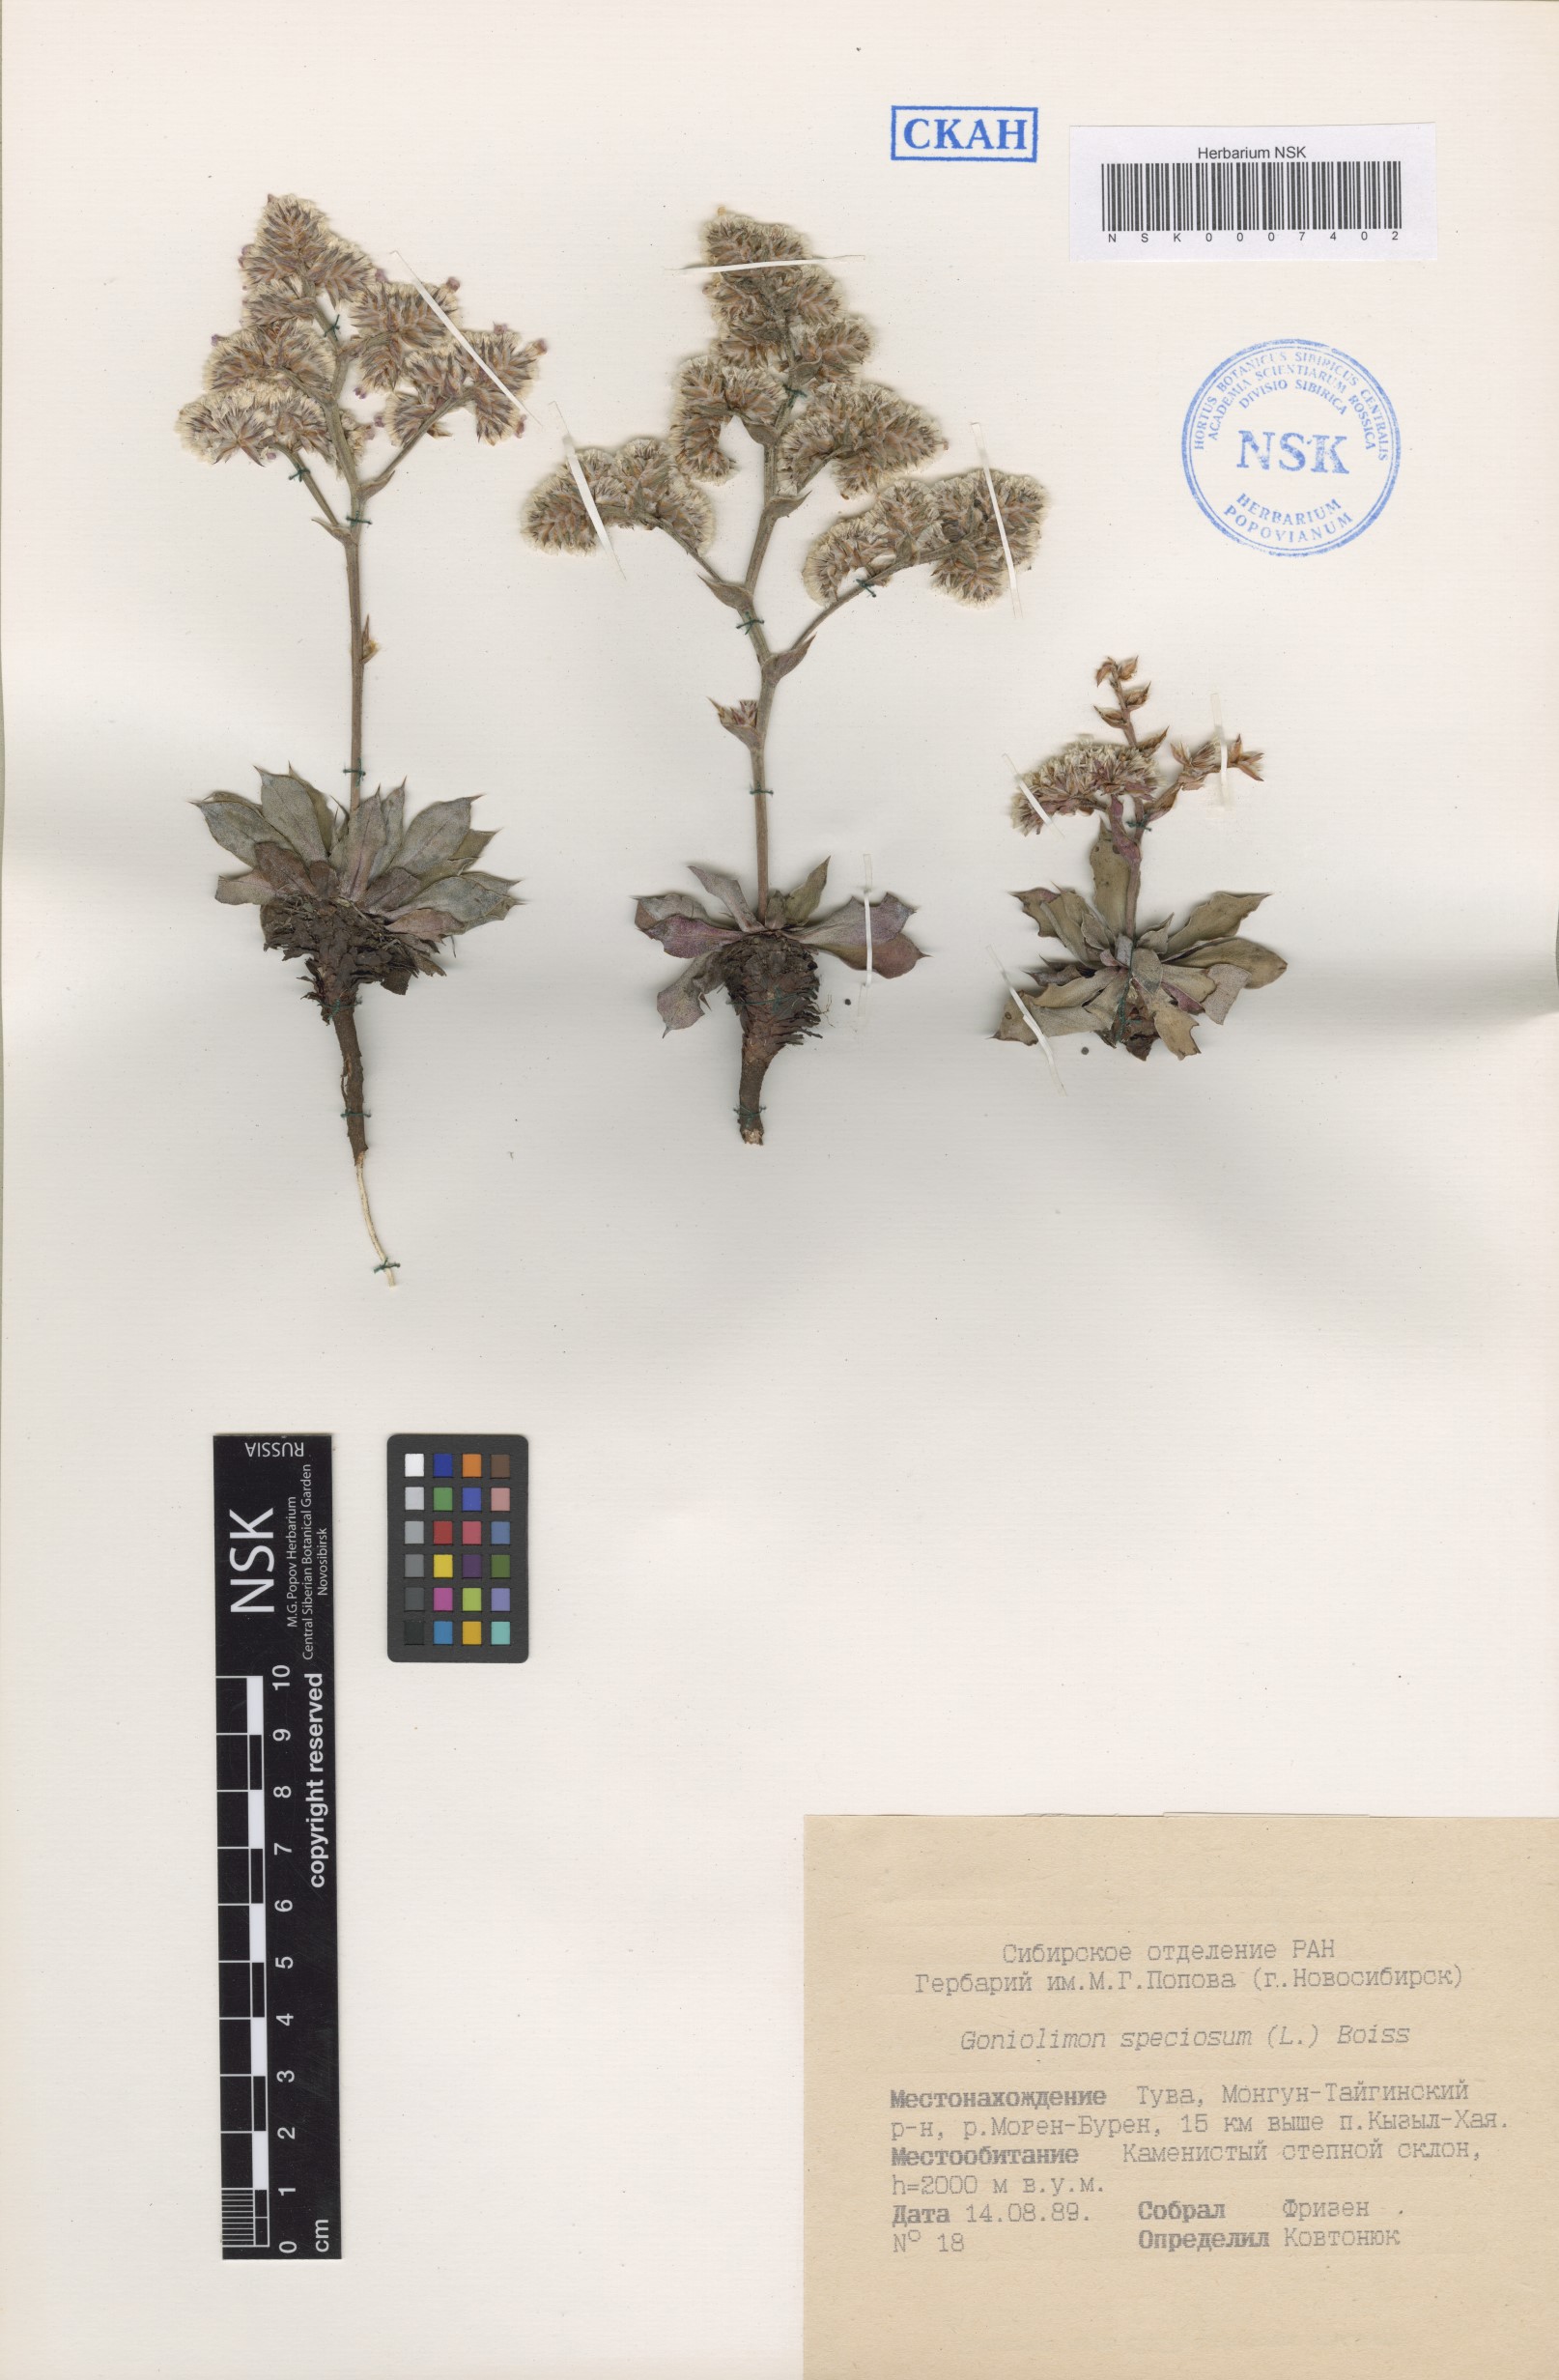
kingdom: Plantae
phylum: Tracheophyta
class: Magnoliopsida
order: Caryophyllales
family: Plumbaginaceae
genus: Goniolimon
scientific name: Goniolimon speciosum
